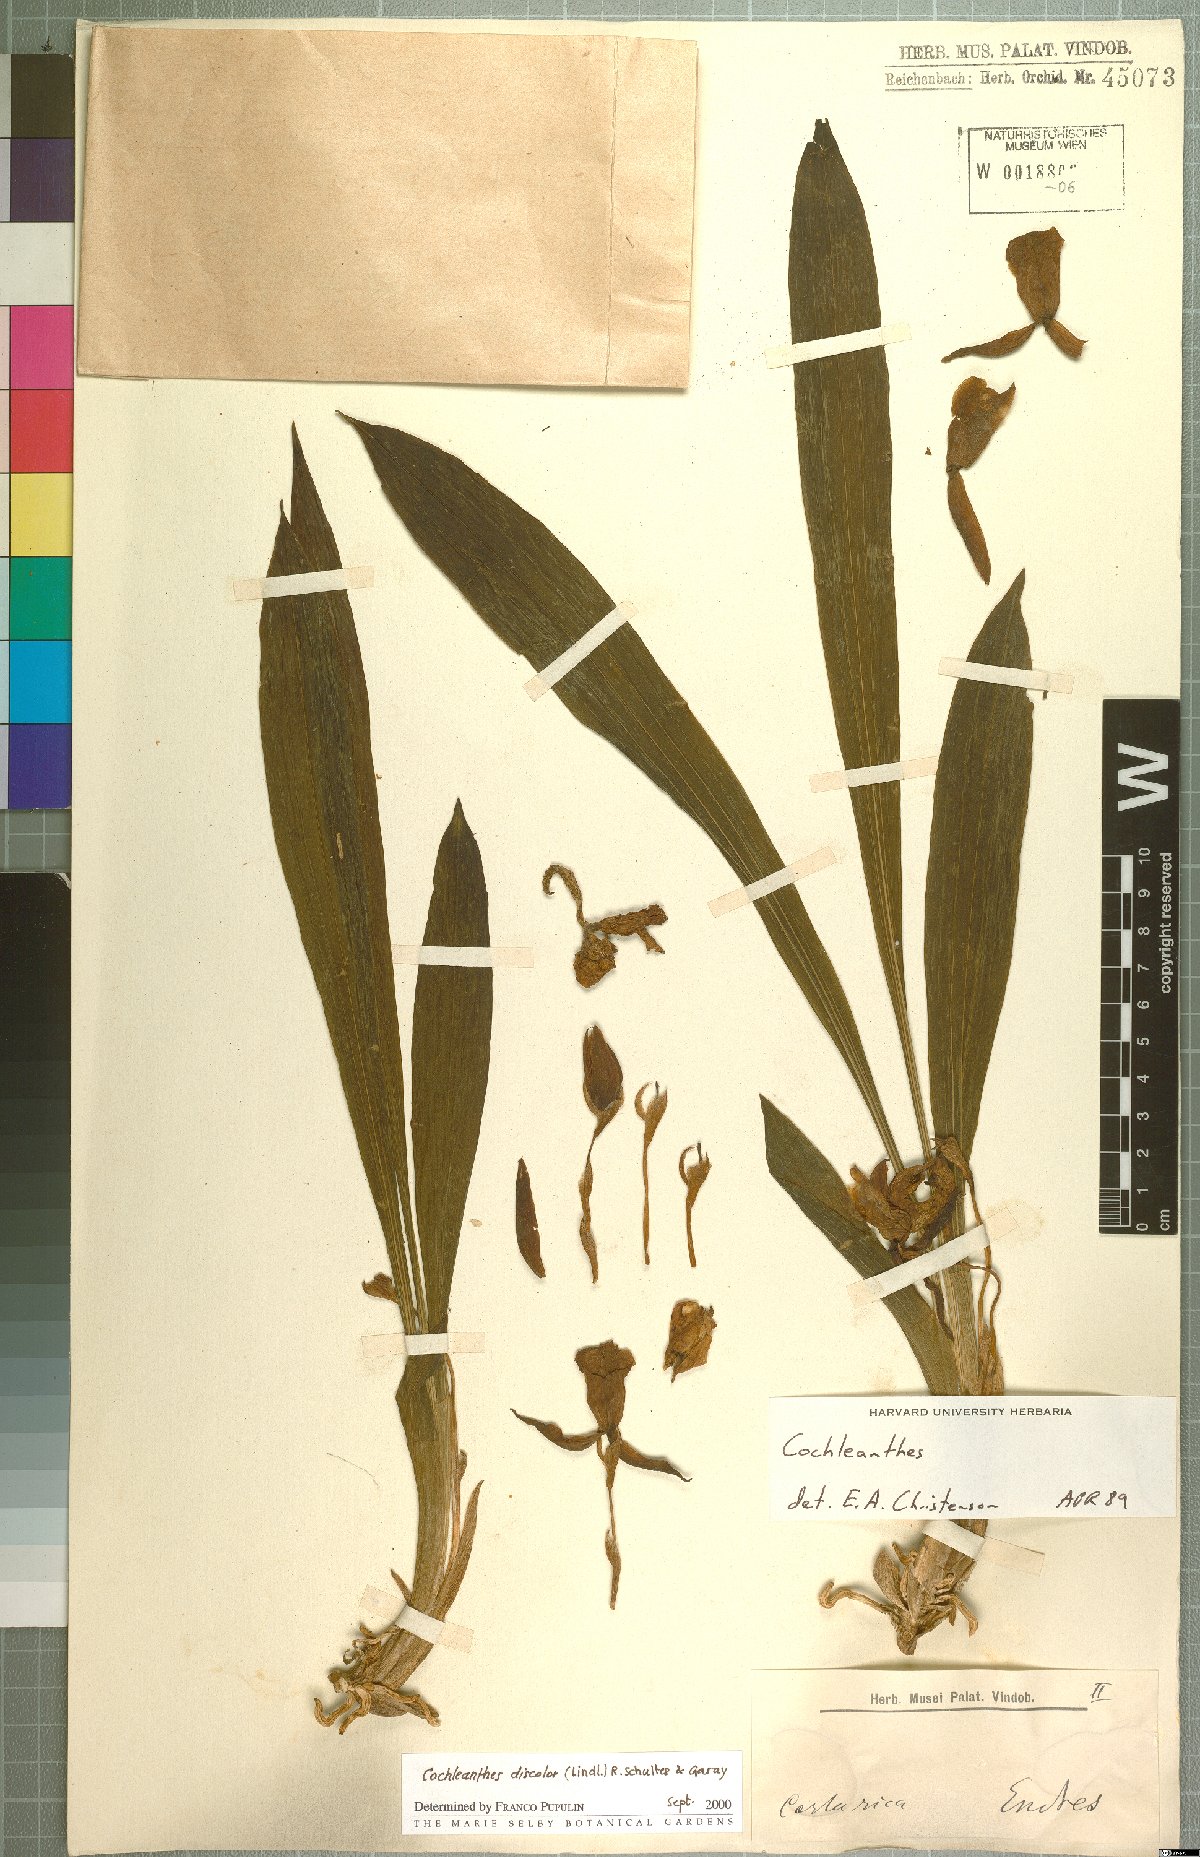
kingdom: Plantae
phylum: Tracheophyta
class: Liliopsida
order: Asparagales
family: Orchidaceae
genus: Warczewiczella
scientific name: Warczewiczella discolor
